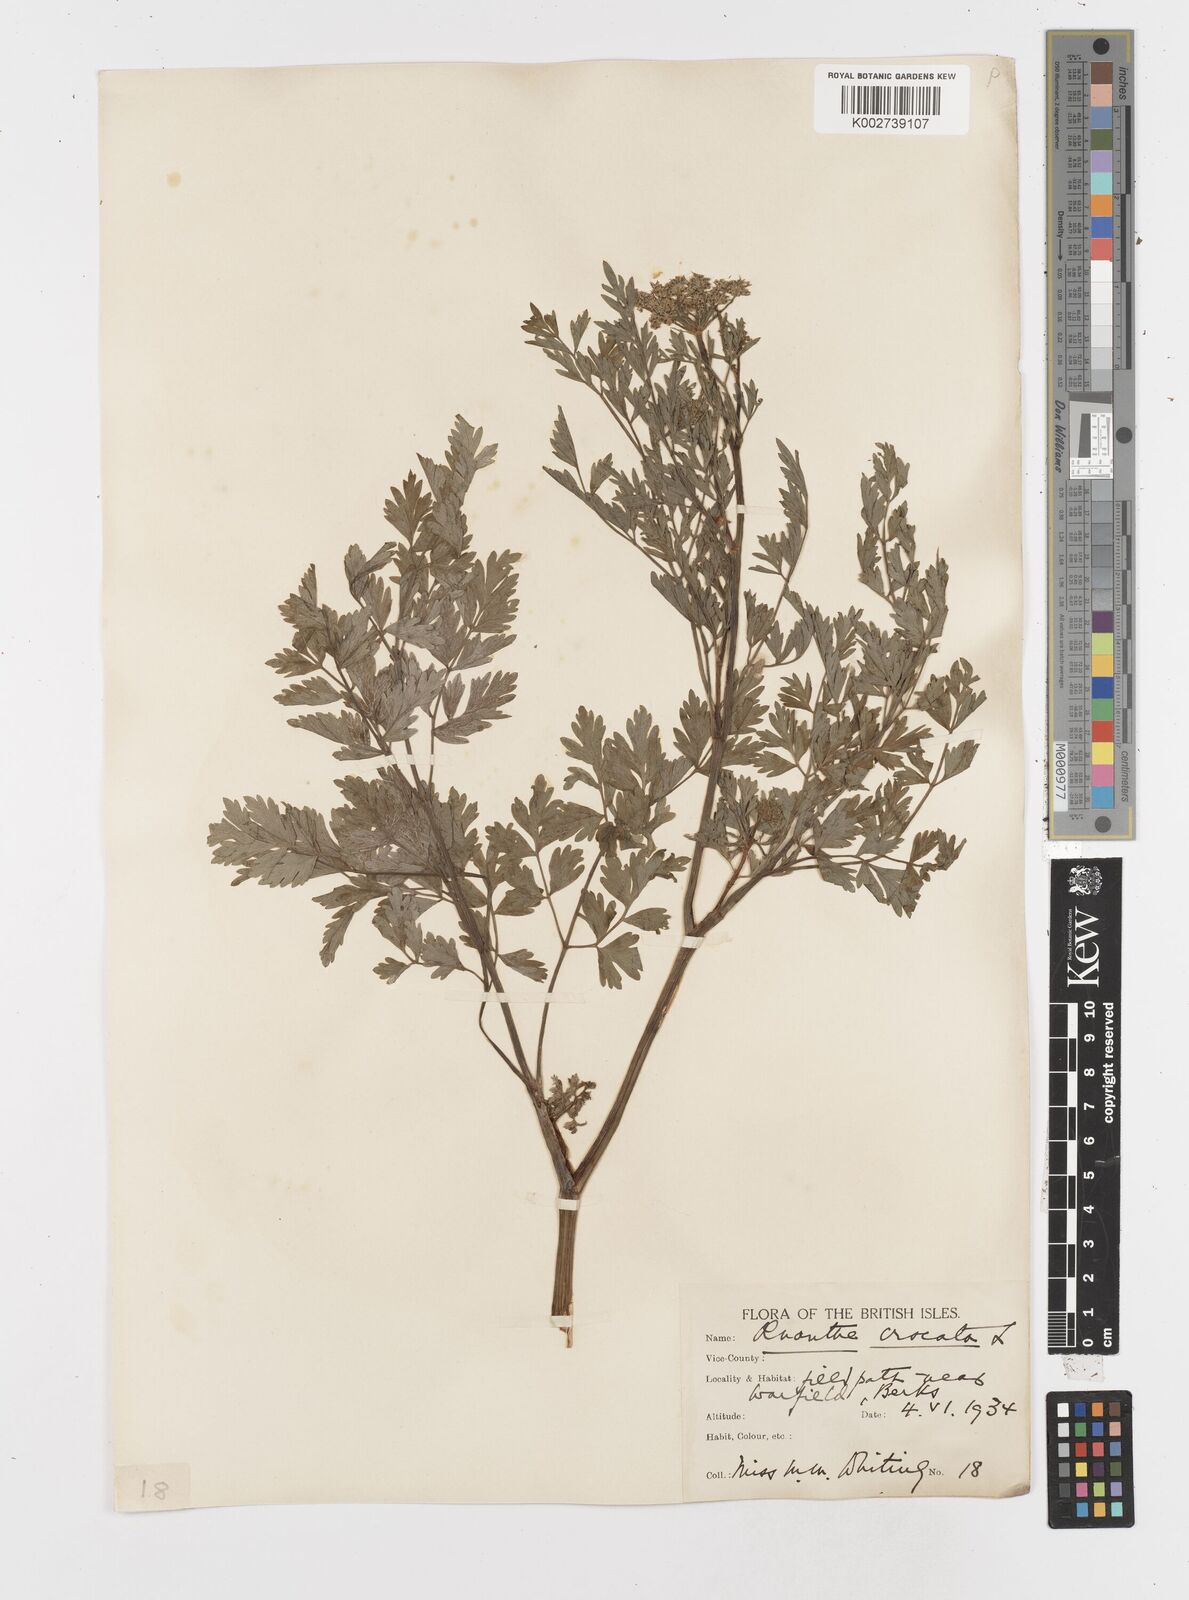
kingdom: Plantae
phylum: Tracheophyta
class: Magnoliopsida
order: Apiales
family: Apiaceae
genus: Oenanthe
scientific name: Oenanthe crocata
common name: Hemlock water-dropwort
